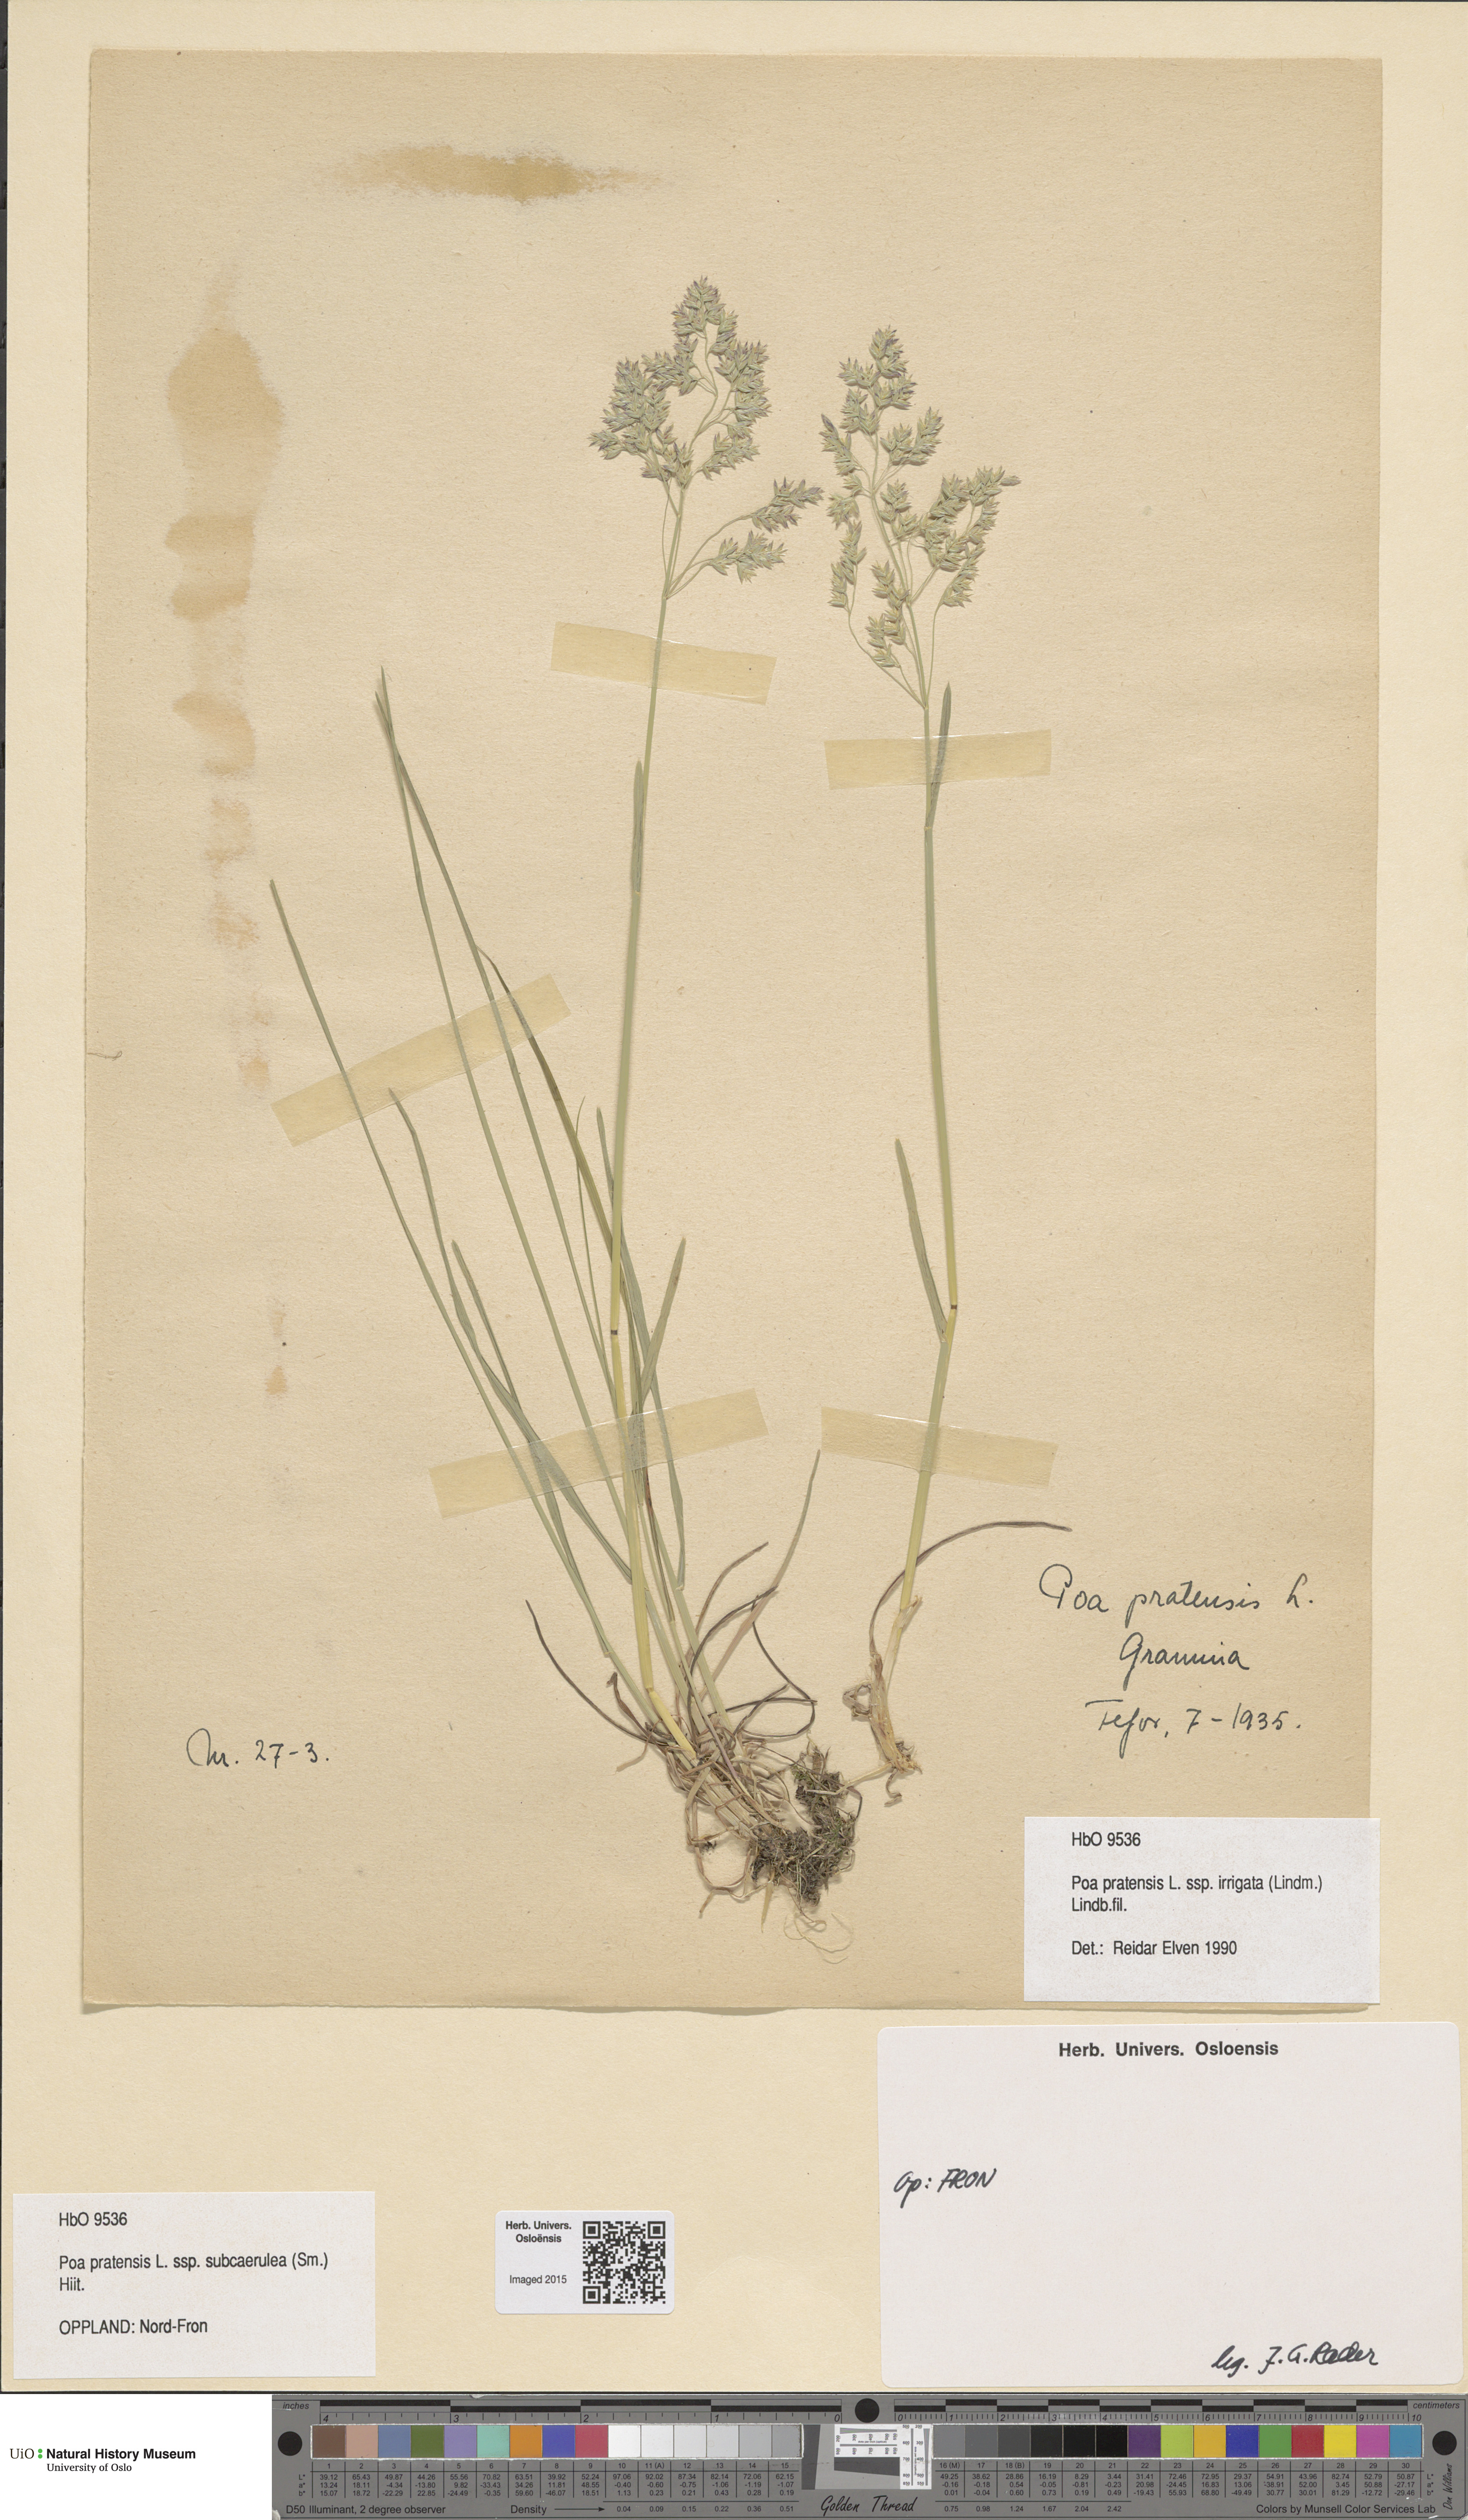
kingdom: Plantae
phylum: Tracheophyta
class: Liliopsida
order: Poales
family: Poaceae
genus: Poa
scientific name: Poa humilis
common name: Spreading meadow-grass
